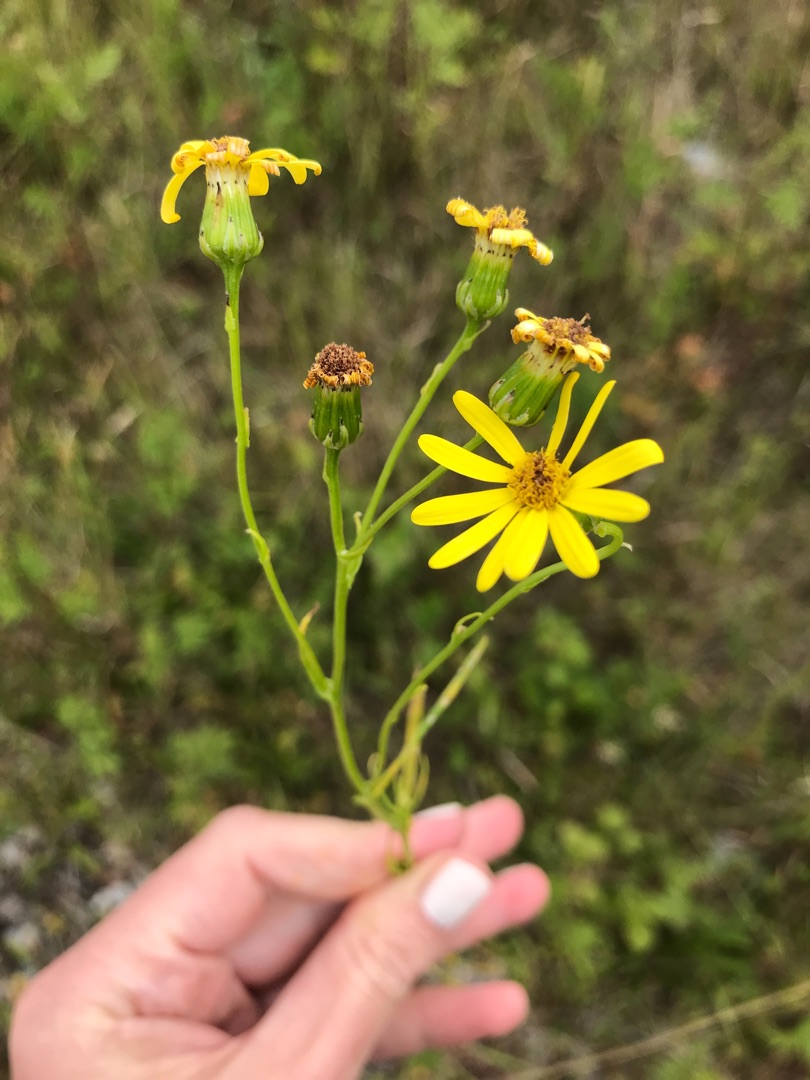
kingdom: Plantae
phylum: Tracheophyta
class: Magnoliopsida
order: Asterales
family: Asteraceae
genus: Senecio
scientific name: Senecio inaequidens
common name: Smalbladet brandbæger
